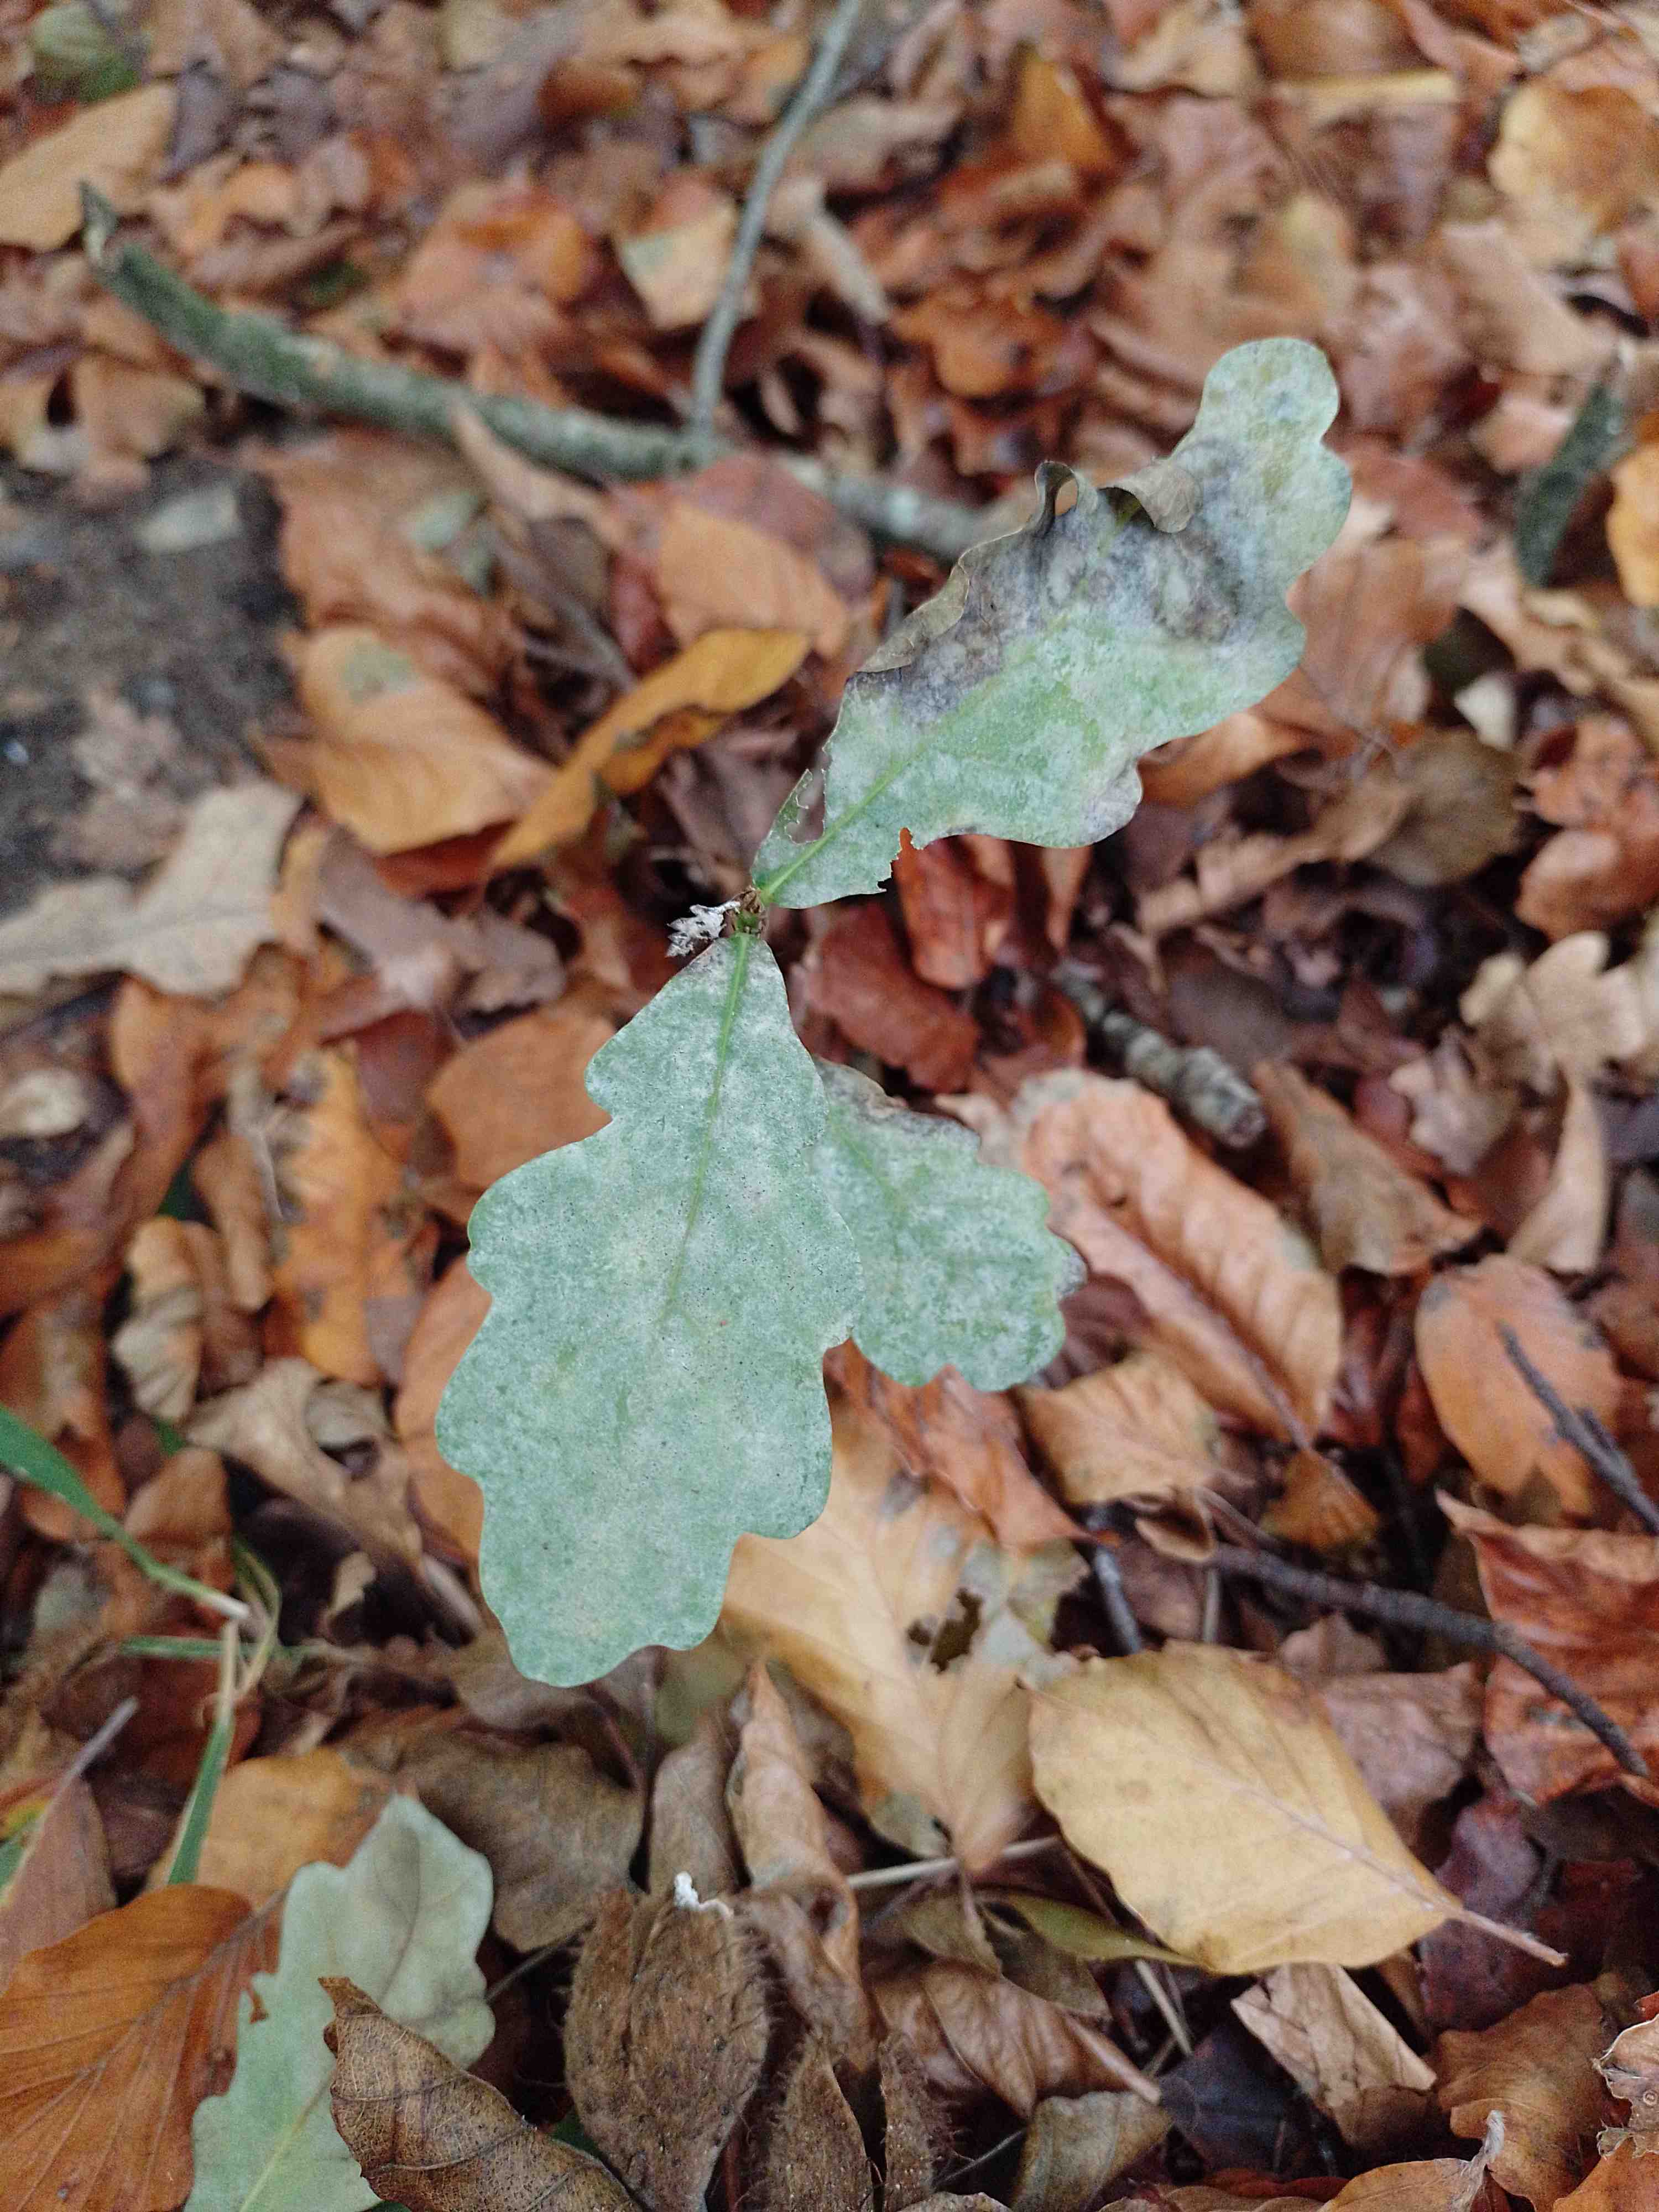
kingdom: Fungi
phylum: Ascomycota
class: Leotiomycetes
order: Helotiales
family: Erysiphaceae
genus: Erysiphe
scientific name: Erysiphe alphitoides
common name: ege-meldug
